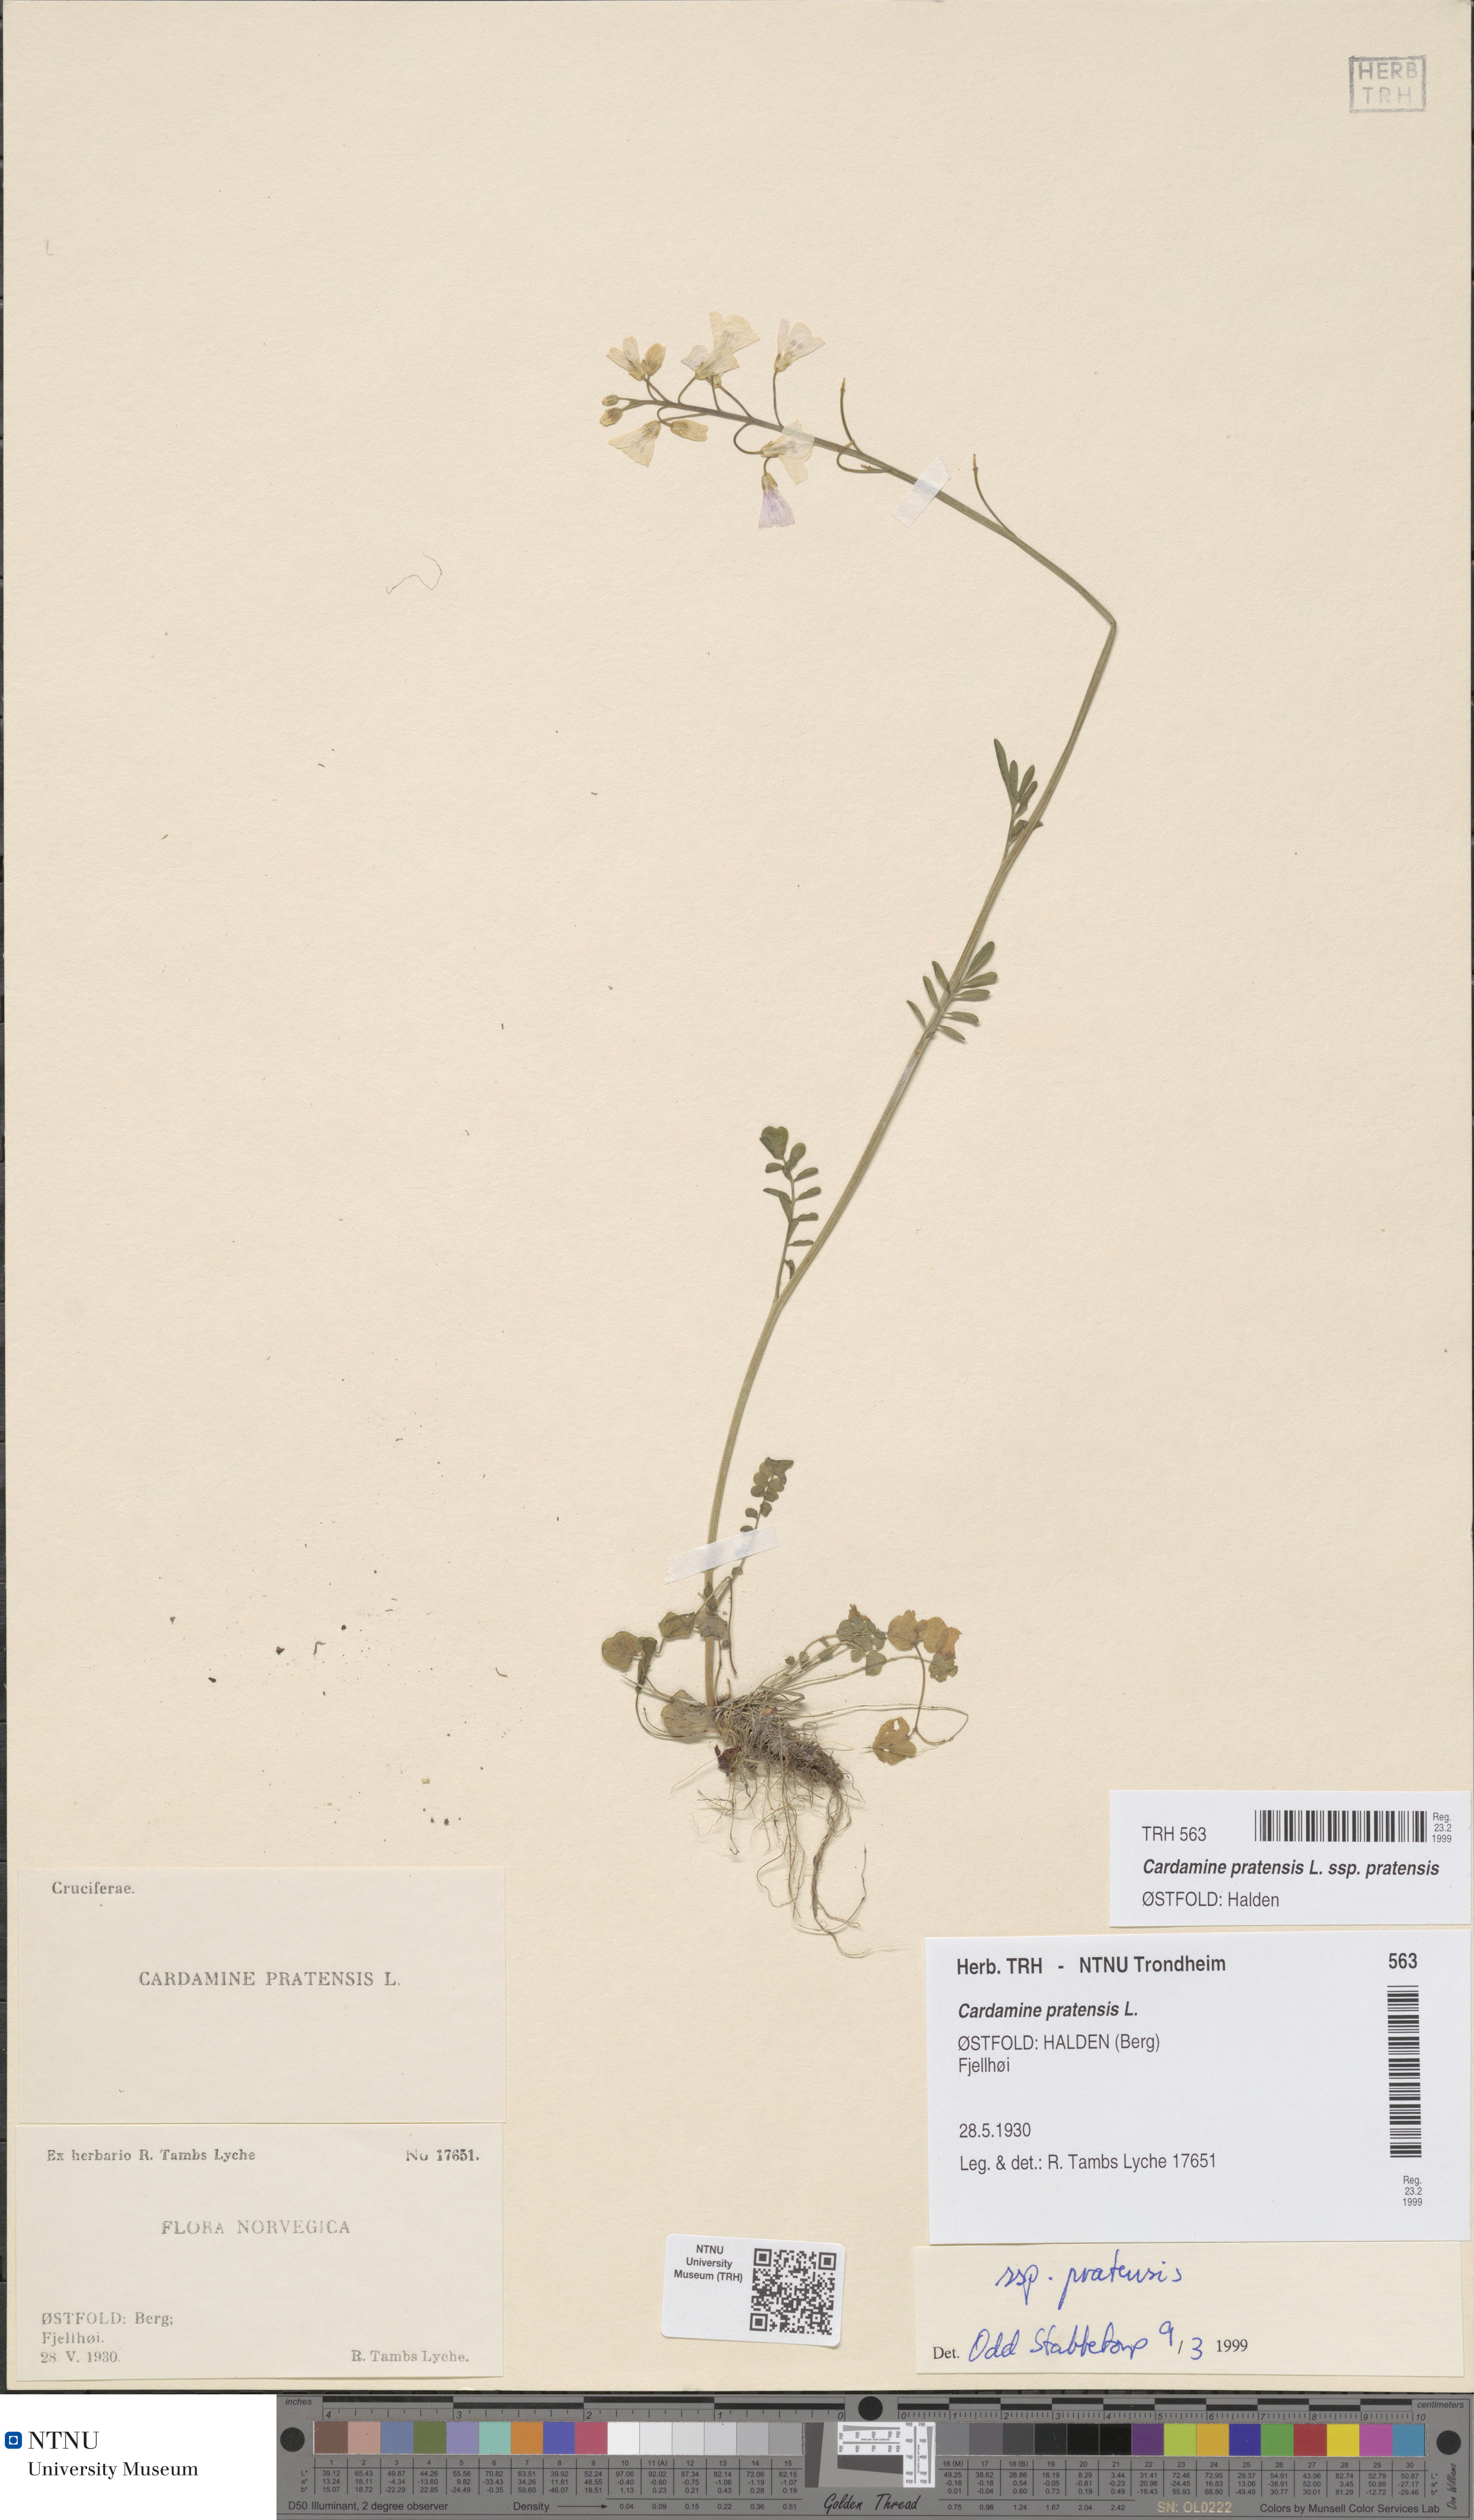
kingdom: Plantae
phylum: Tracheophyta
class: Magnoliopsida
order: Brassicales
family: Brassicaceae
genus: Cardamine
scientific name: Cardamine pratensis
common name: Cuckoo flower
